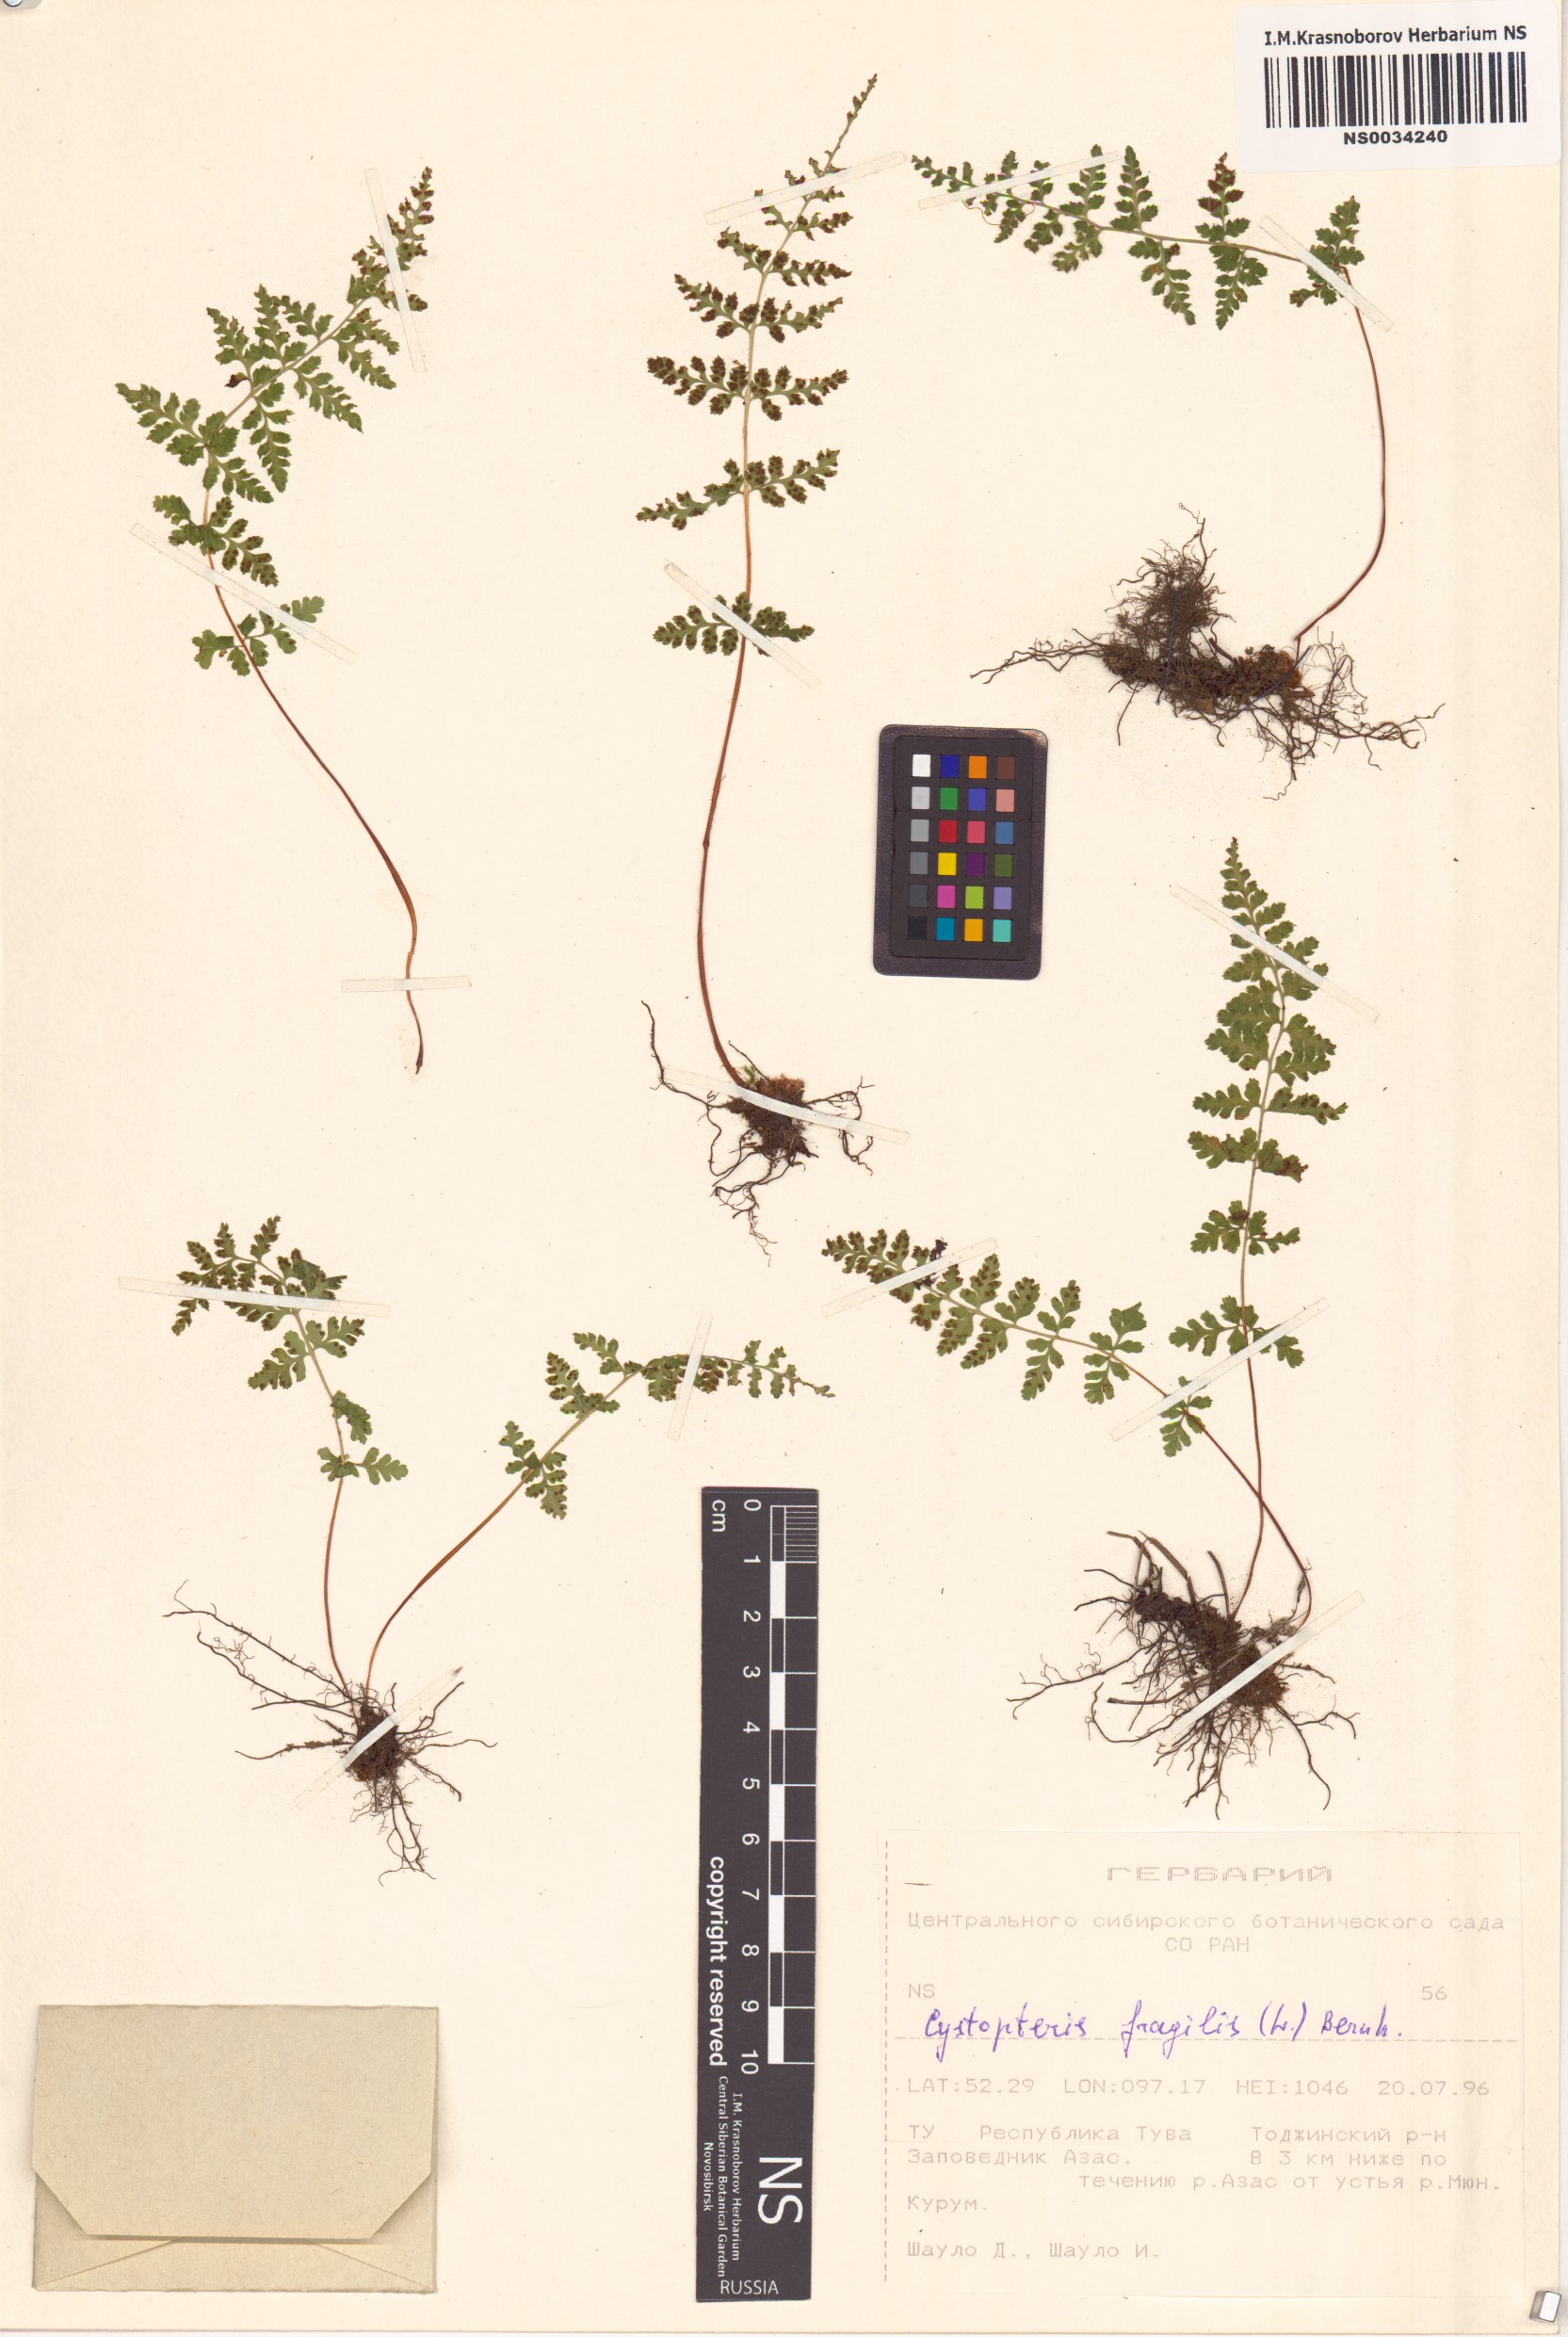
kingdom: Plantae
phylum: Tracheophyta
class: Polypodiopsida
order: Polypodiales
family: Cystopteridaceae
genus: Cystopteris
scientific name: Cystopteris fragilis
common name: Brittle bladder fern
